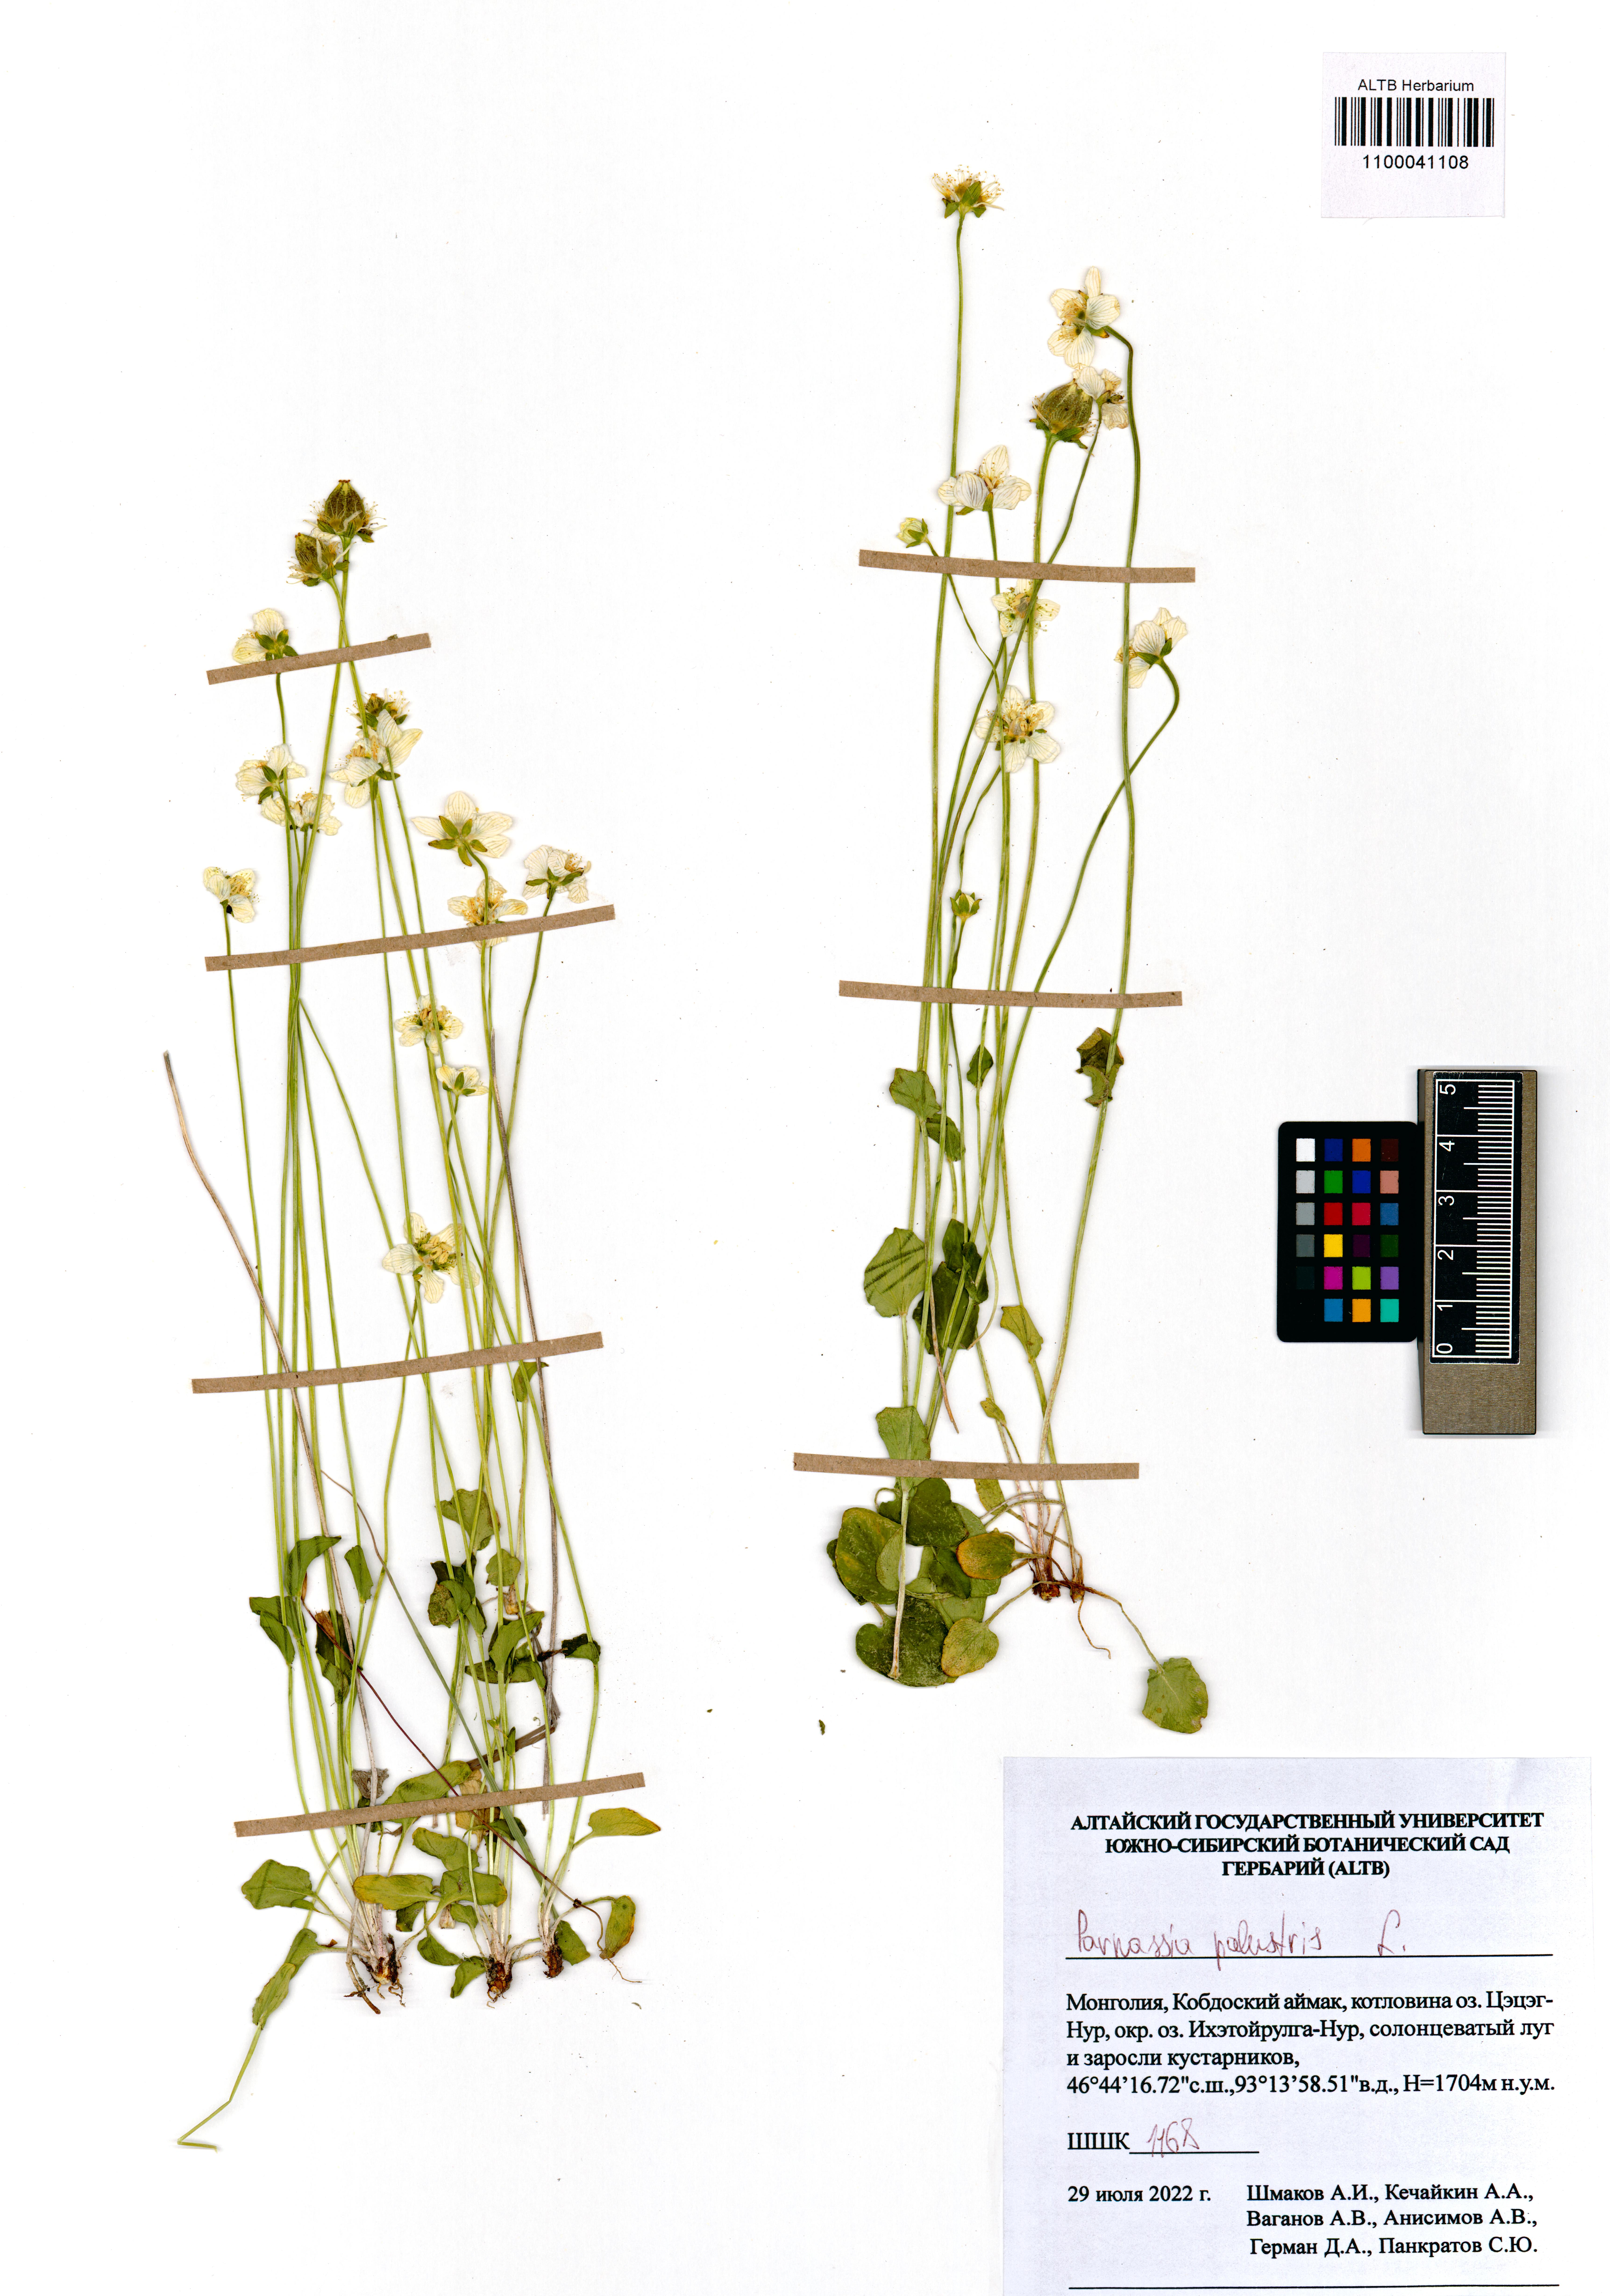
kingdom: Plantae
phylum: Tracheophyta
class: Magnoliopsida
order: Celastrales
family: Parnassiaceae
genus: Parnassia
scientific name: Parnassia palustris
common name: Grass-of-parnassus
